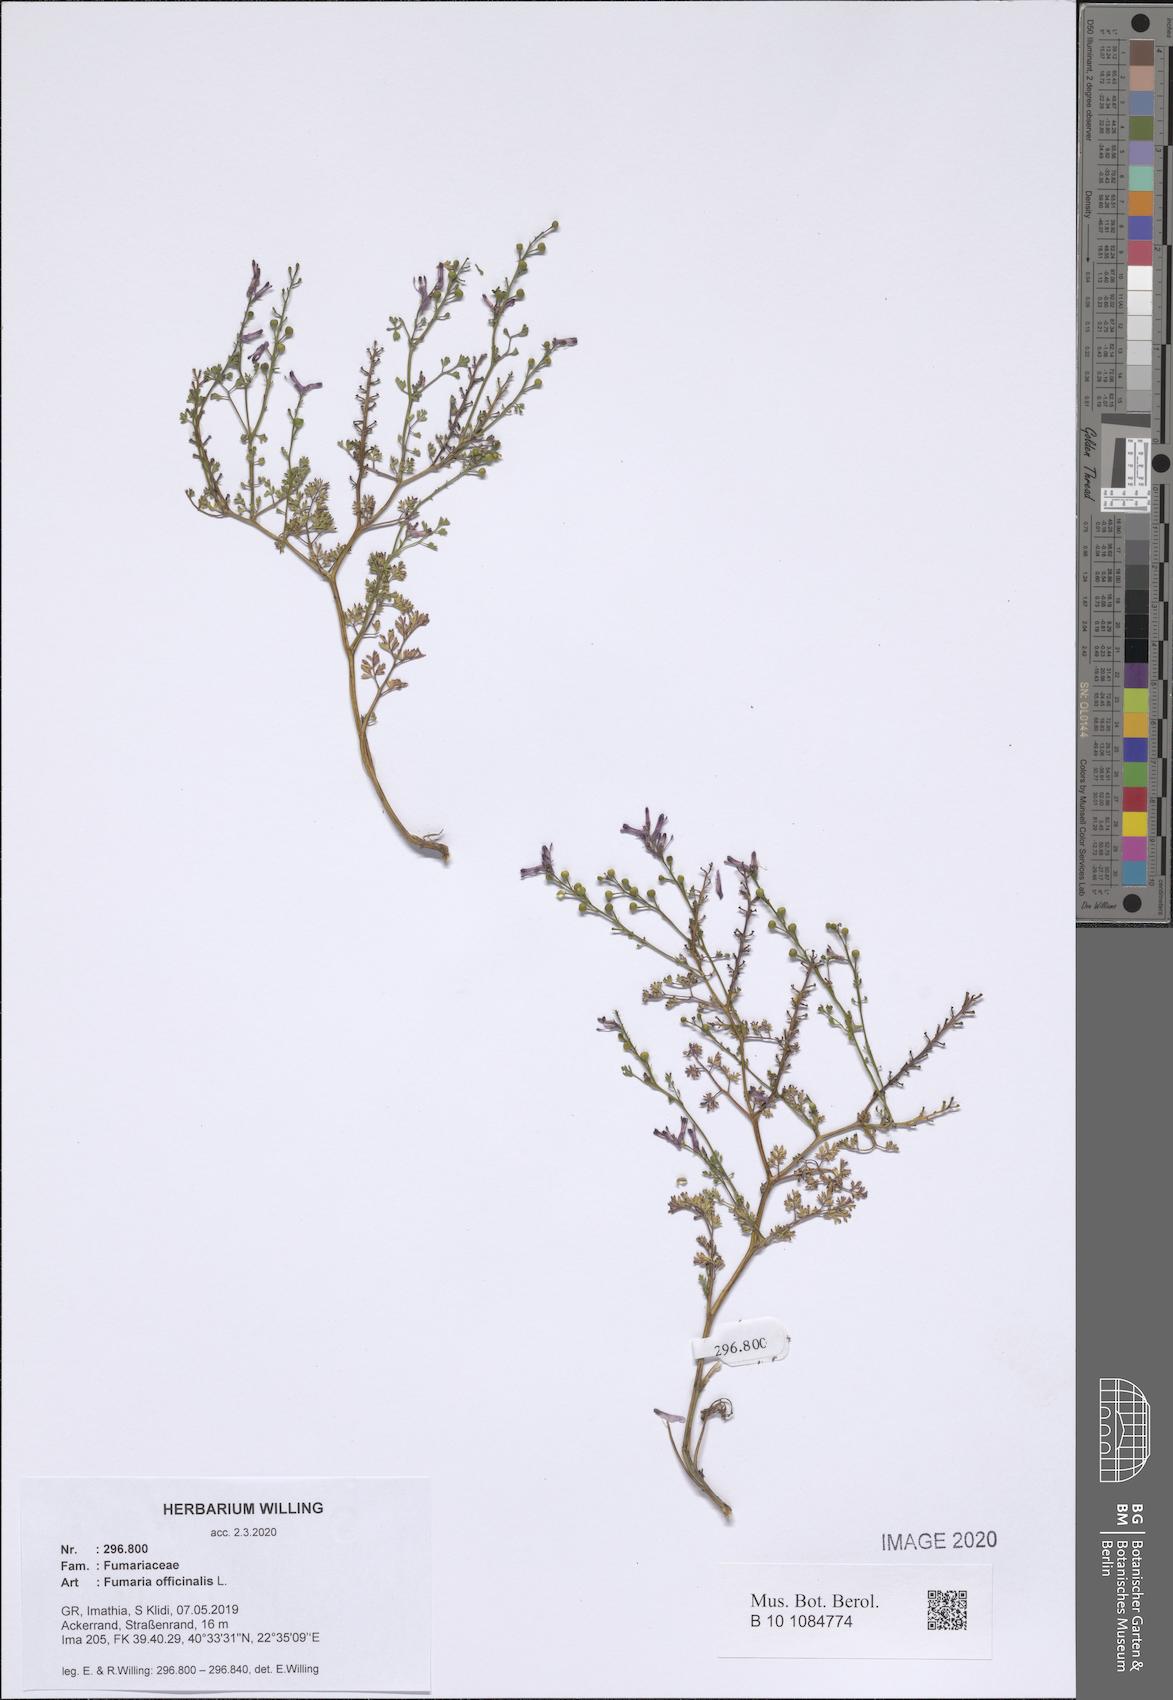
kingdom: Plantae
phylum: Tracheophyta
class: Magnoliopsida
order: Ranunculales
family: Papaveraceae
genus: Fumaria
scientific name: Fumaria officinalis
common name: Common fumitory
